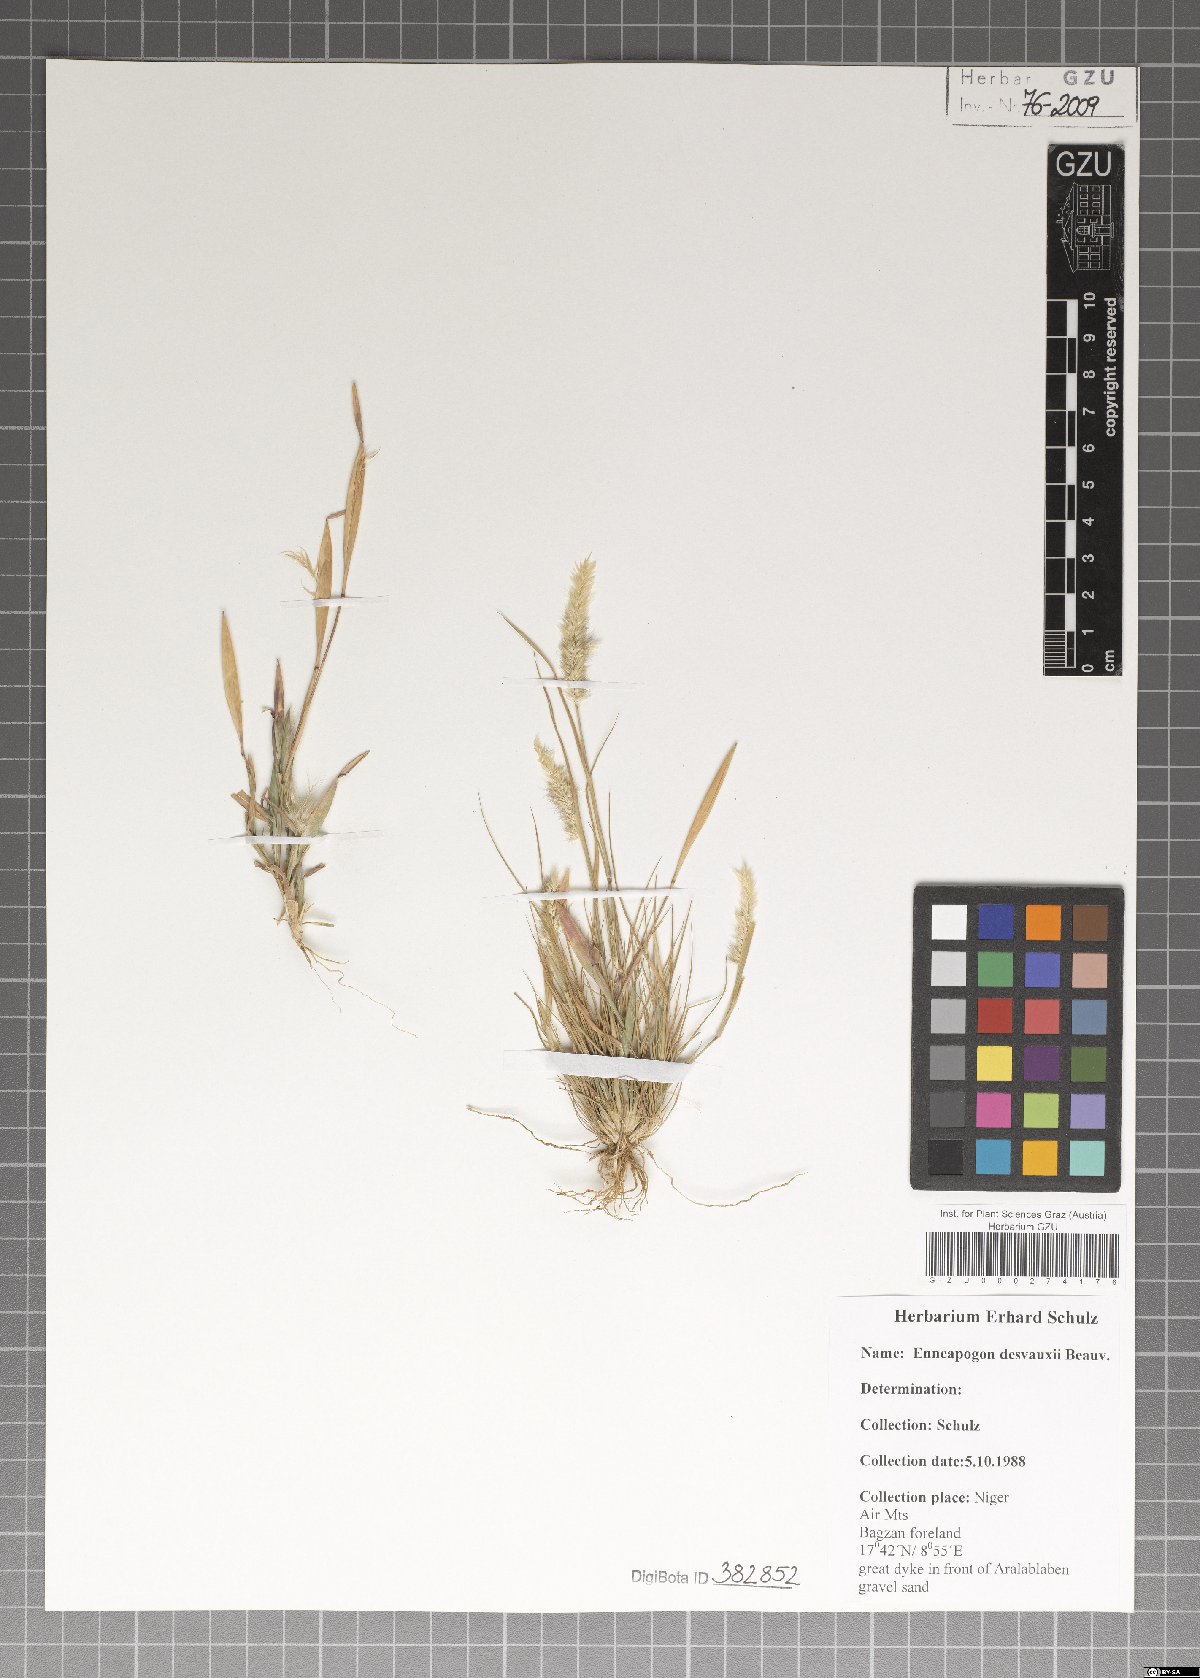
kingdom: Plantae
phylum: Tracheophyta
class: Liliopsida
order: Poales
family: Poaceae
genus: Enneapogon
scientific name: Enneapogon desvauxii
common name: Feather pappus grass
